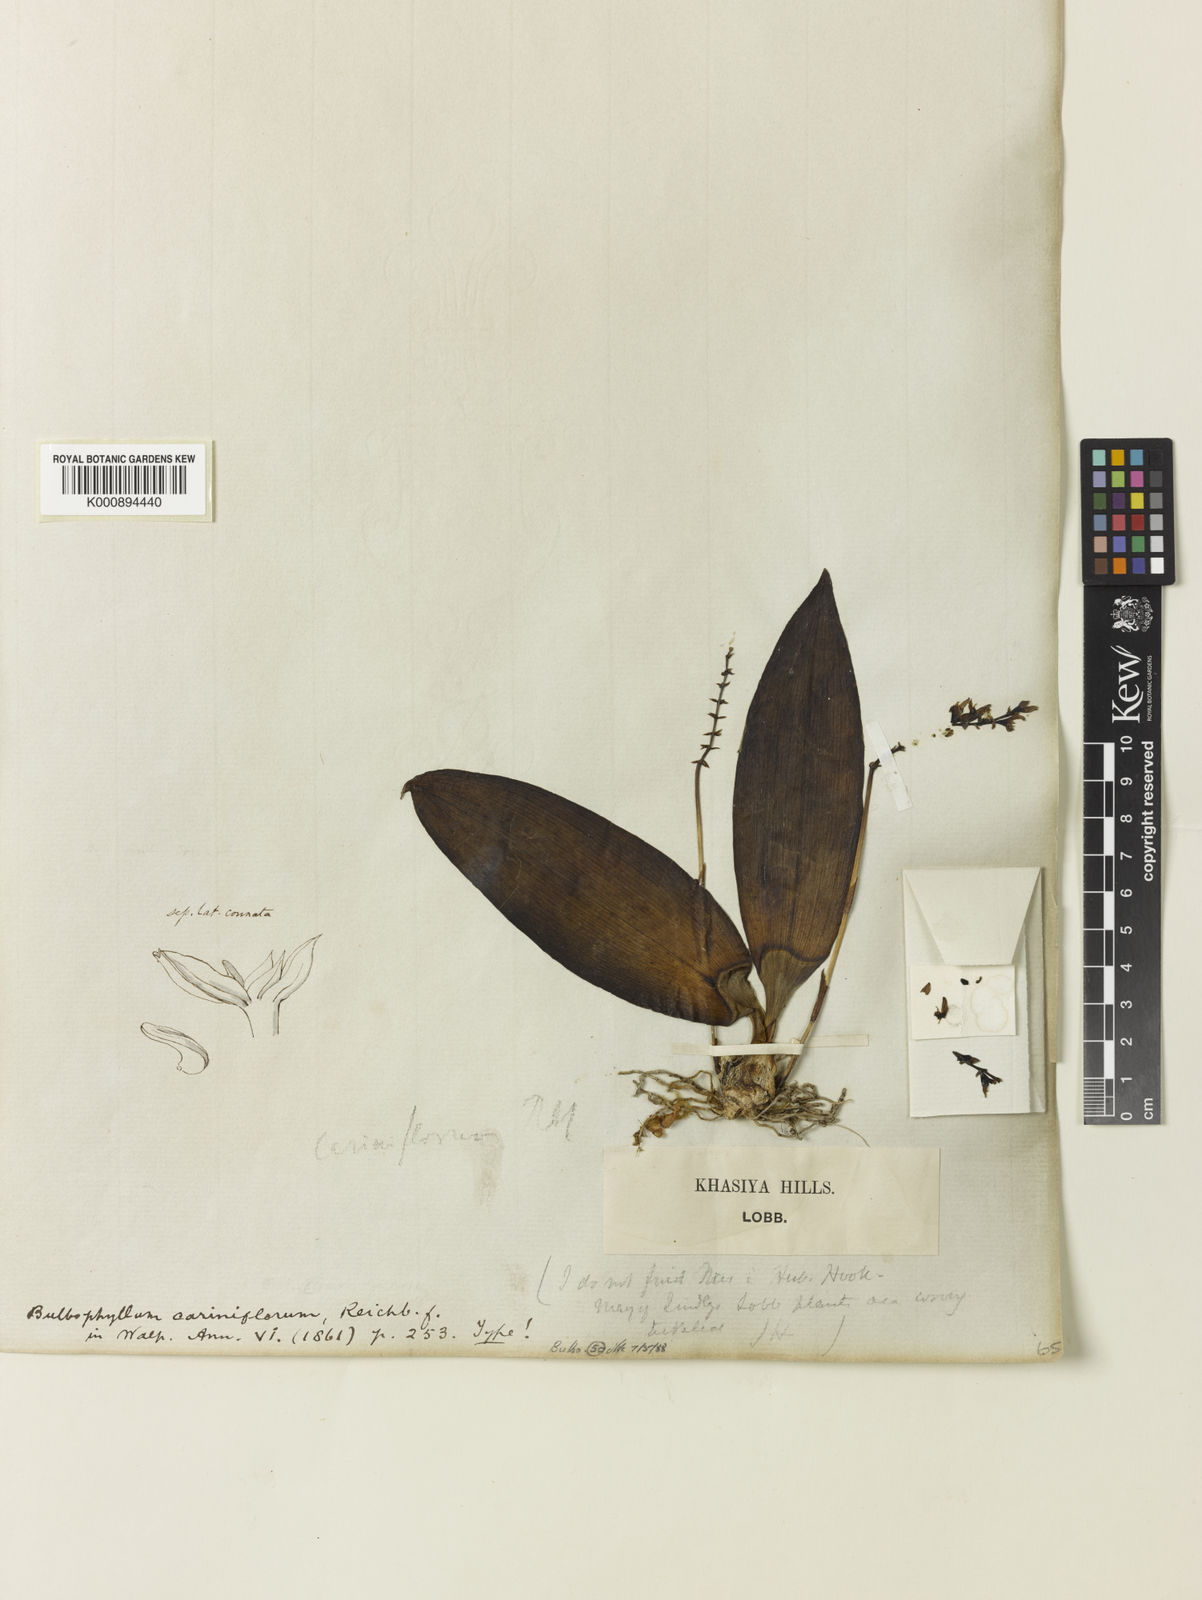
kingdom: Plantae
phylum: Tracheophyta
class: Liliopsida
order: Asparagales
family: Orchidaceae
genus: Bulbophyllum
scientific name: Bulbophyllum cariniflorum
